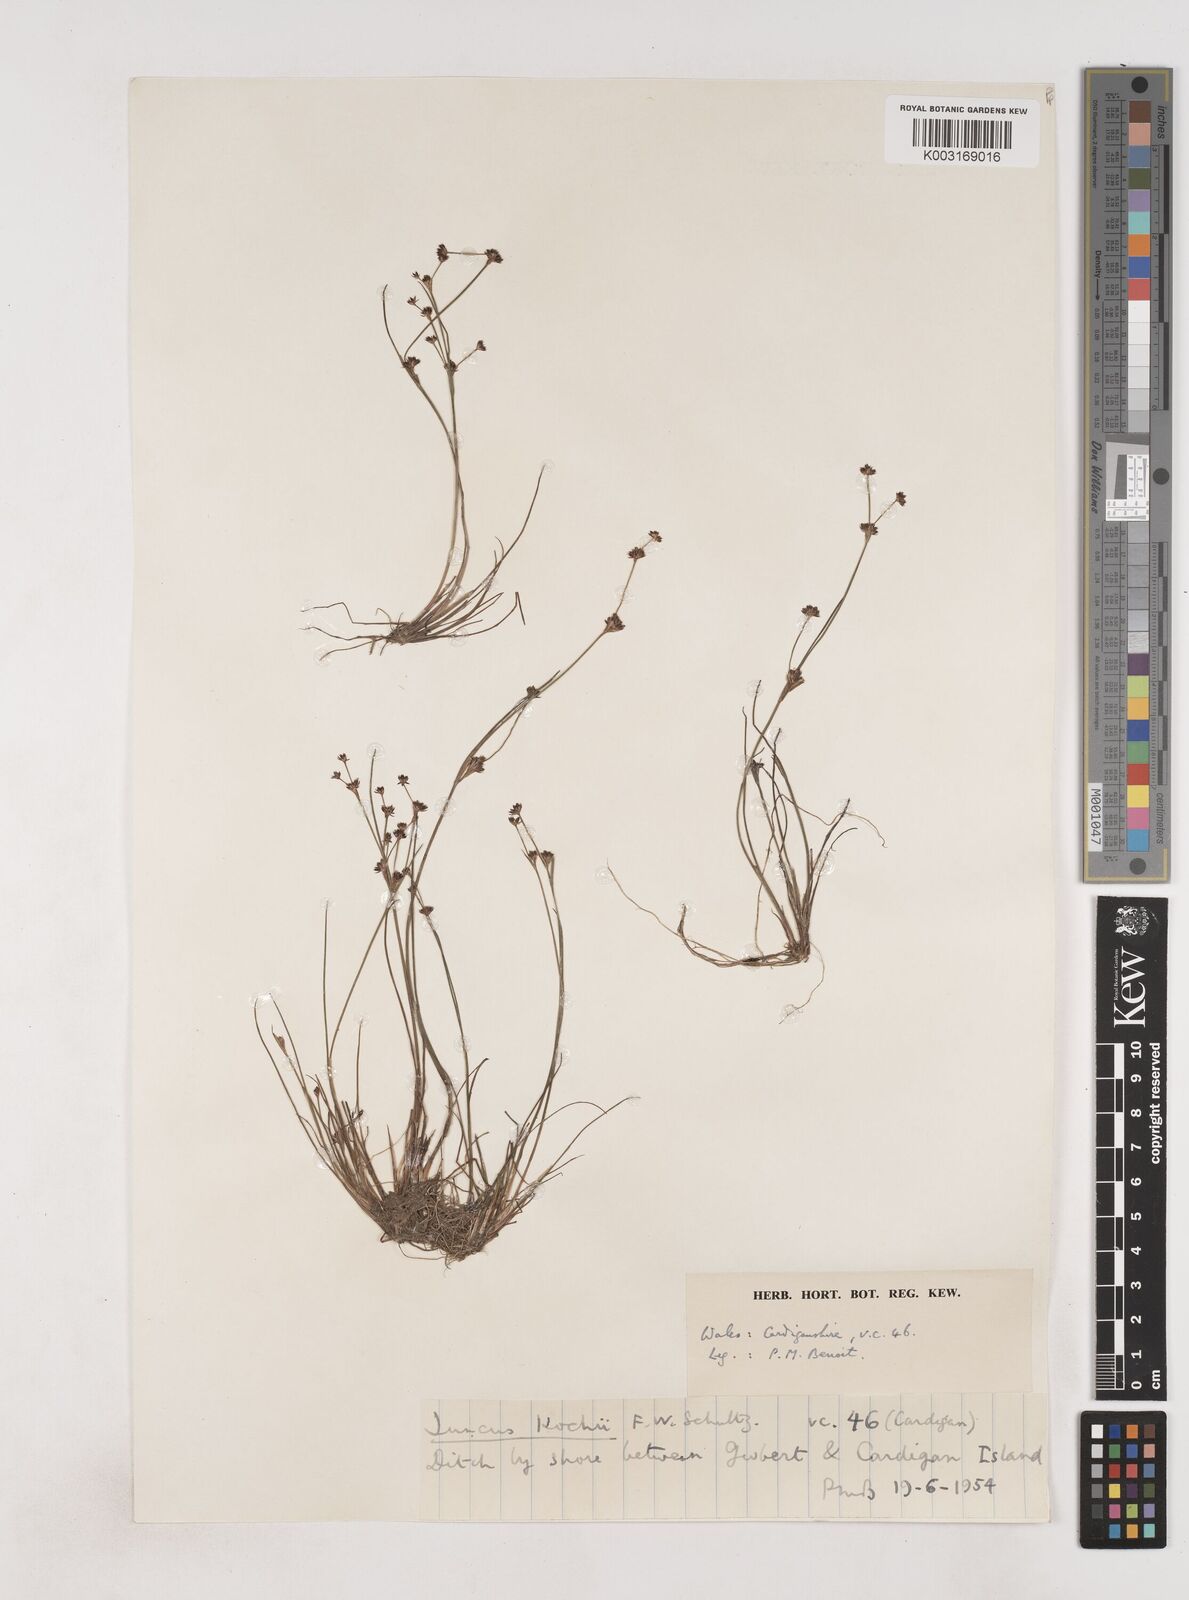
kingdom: Plantae
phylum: Tracheophyta
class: Liliopsida
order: Poales
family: Juncaceae
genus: Juncus
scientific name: Juncus bulbosus
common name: Bulbous rush
